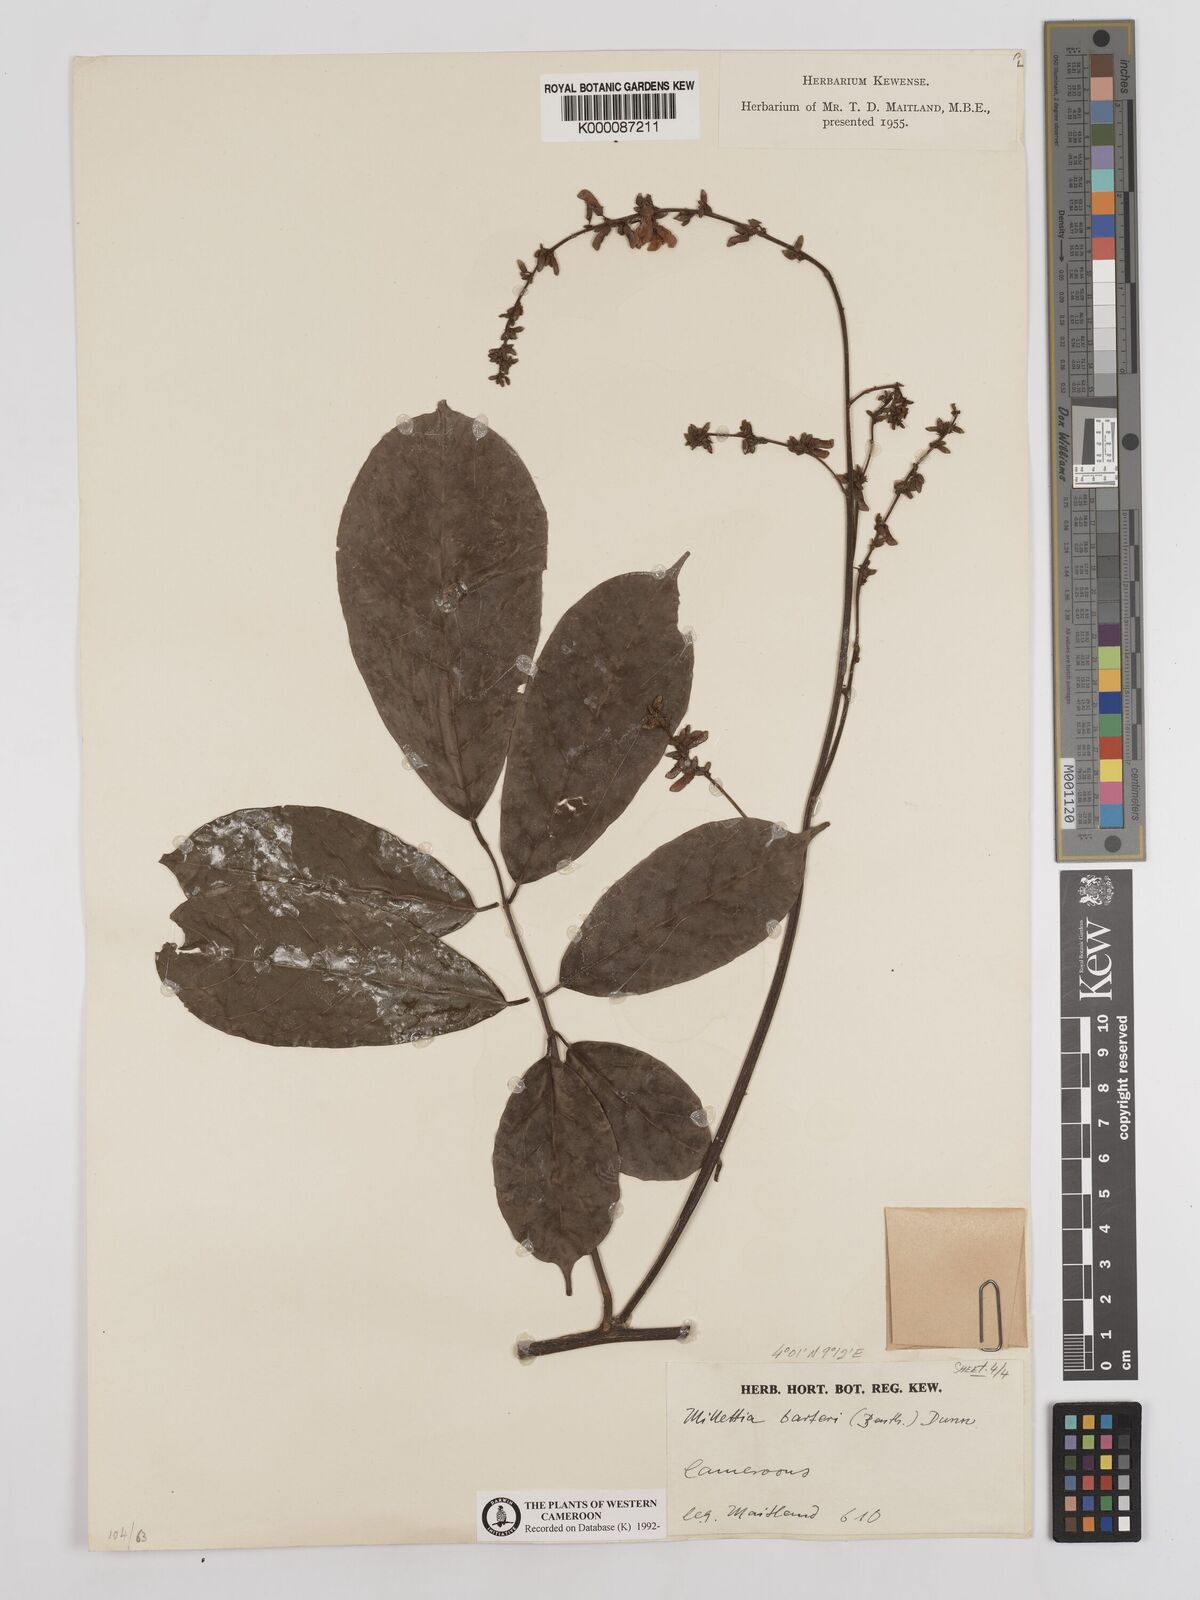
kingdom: Plantae
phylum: Tracheophyta
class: Magnoliopsida
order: Fabales
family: Fabaceae
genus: Millettia
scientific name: Millettia barteri
